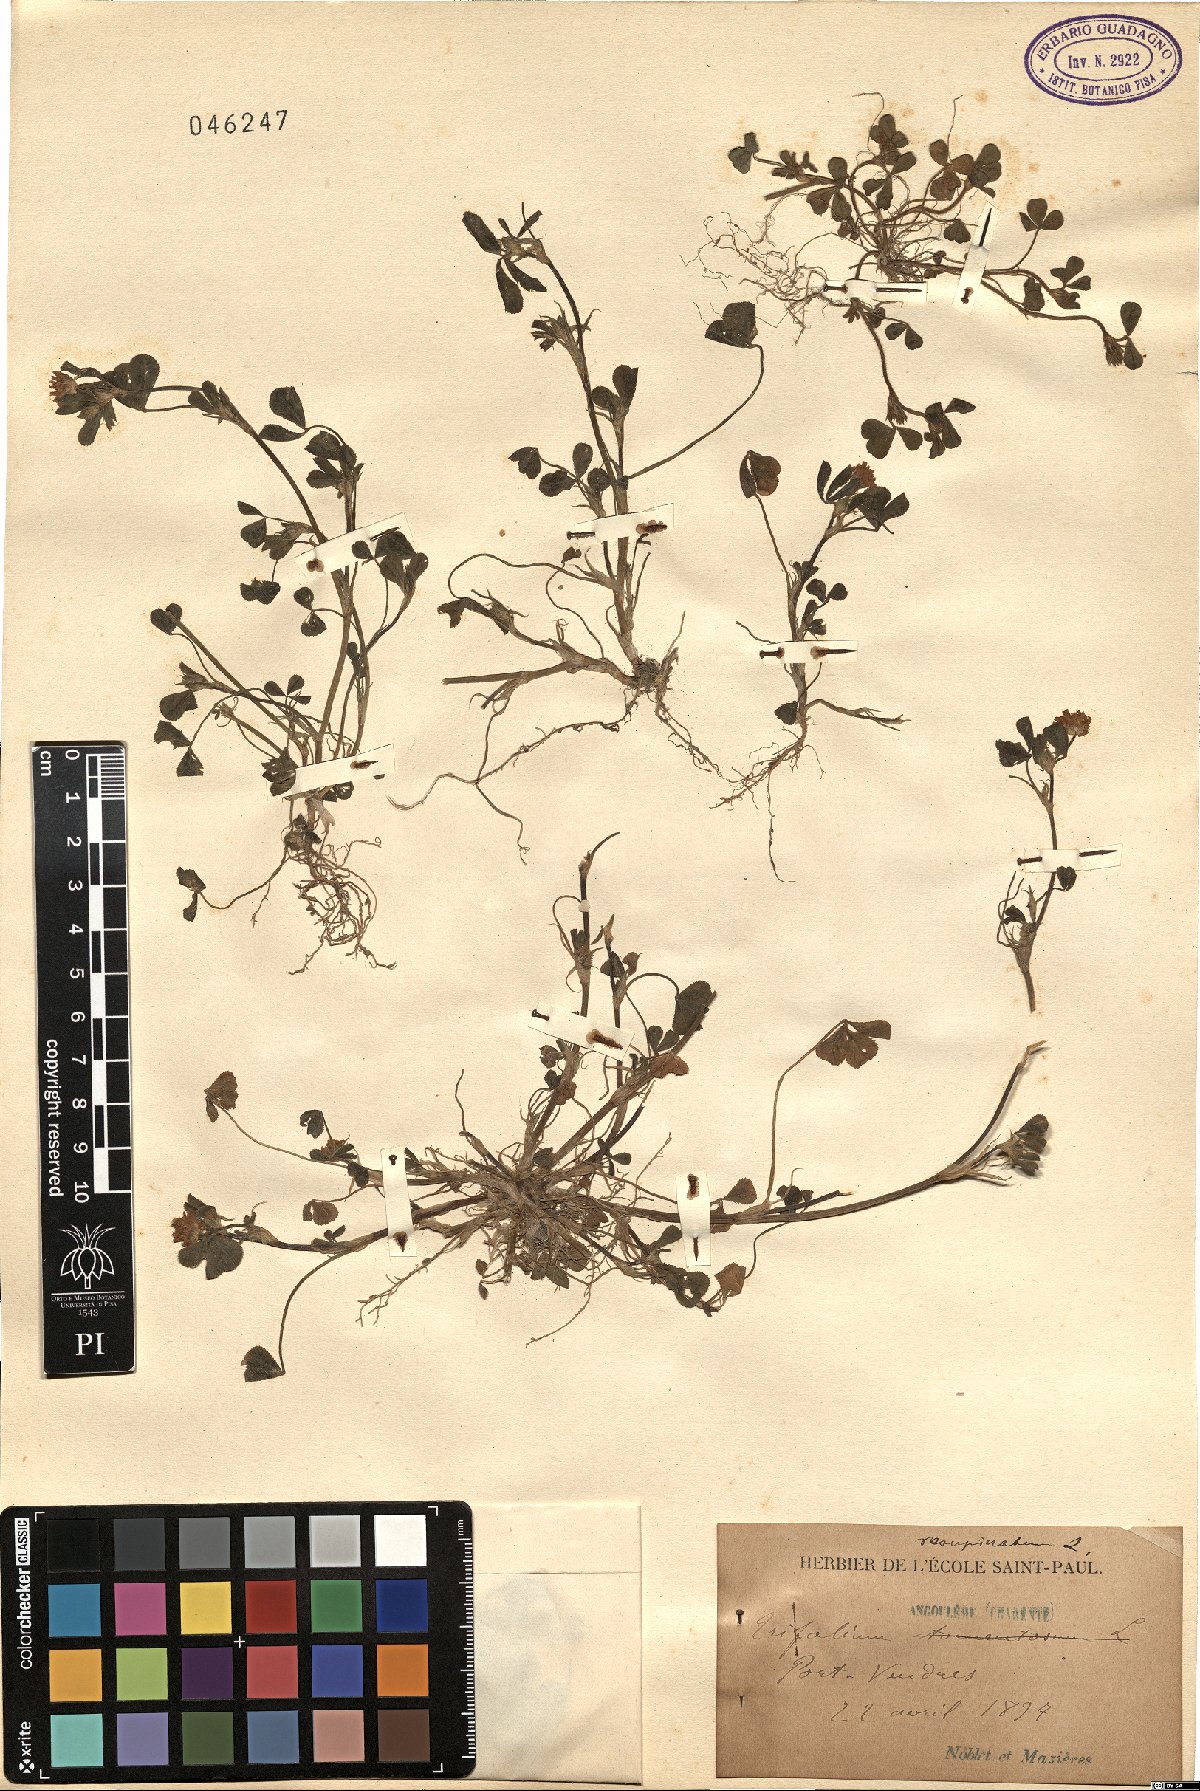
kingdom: Plantae
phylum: Tracheophyta
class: Magnoliopsida
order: Fabales
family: Fabaceae
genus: Trifolium
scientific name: Trifolium resupinatum
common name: Reversed clover
